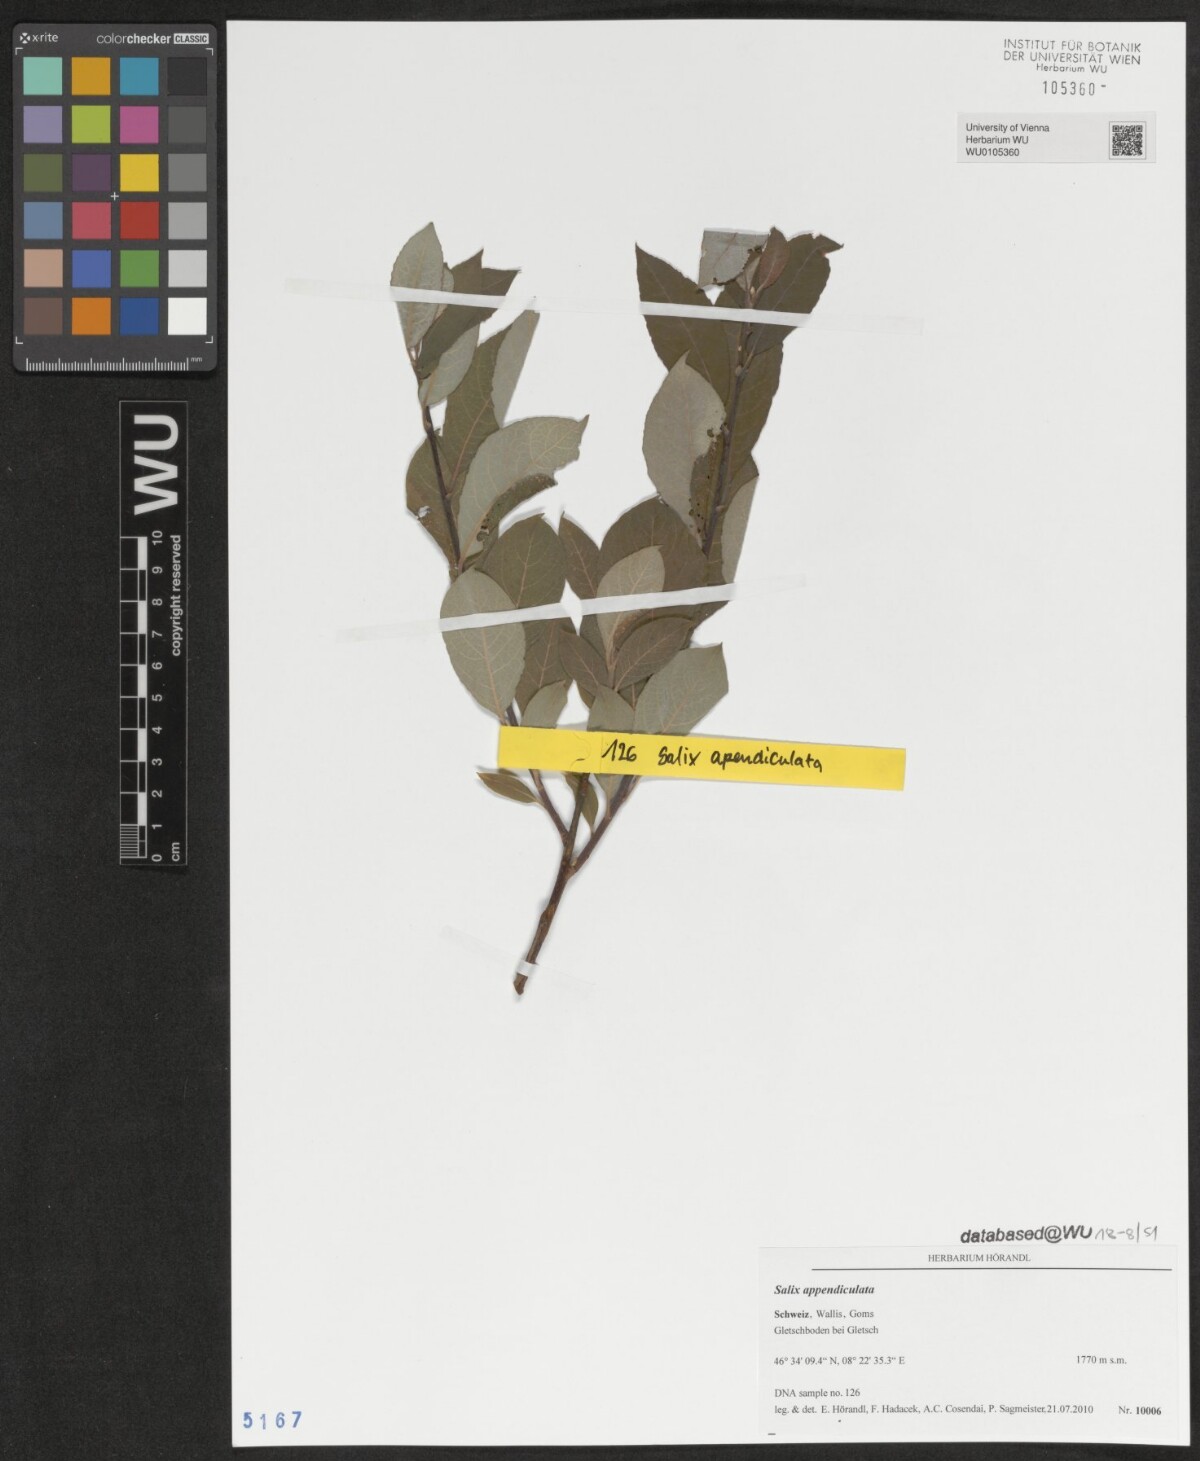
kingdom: Plantae
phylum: Tracheophyta
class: Magnoliopsida
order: Malpighiales
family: Salicaceae
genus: Salix
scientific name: Salix appendiculata
